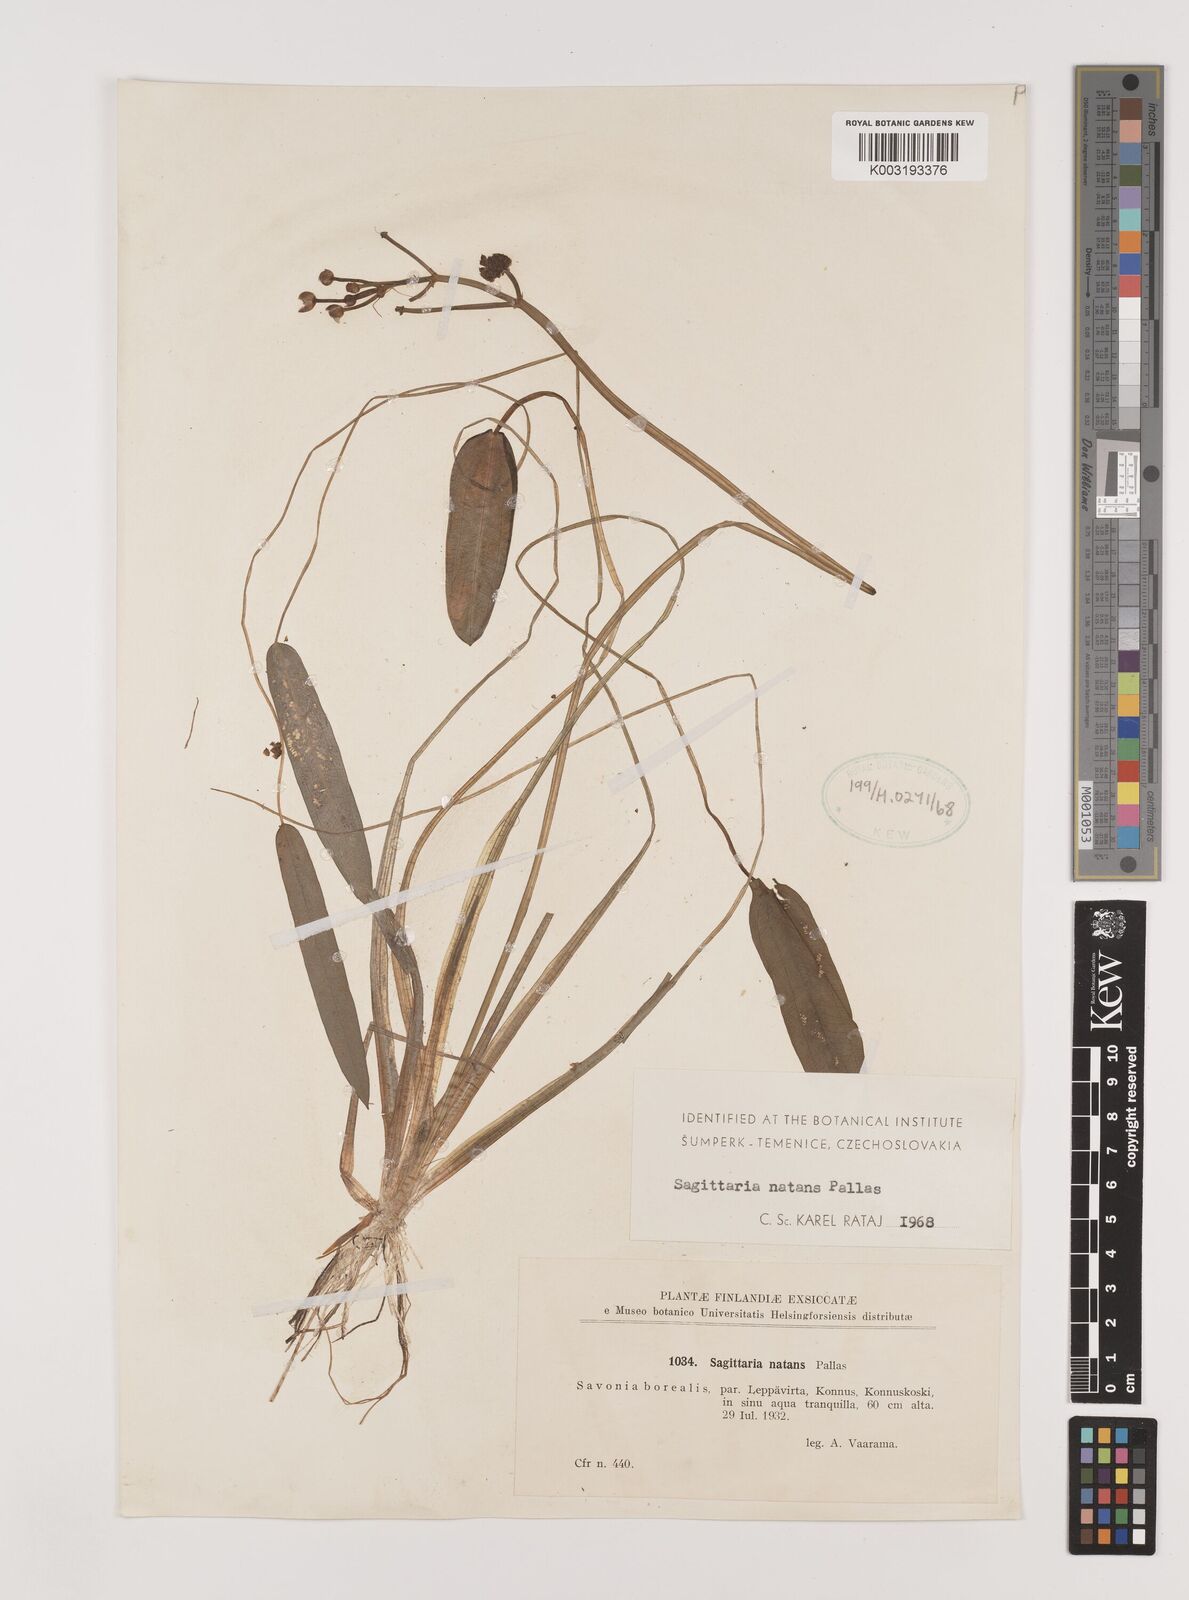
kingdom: Plantae
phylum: Tracheophyta
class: Liliopsida
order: Alismatales
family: Alismataceae
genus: Sagittaria
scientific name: Sagittaria natans
